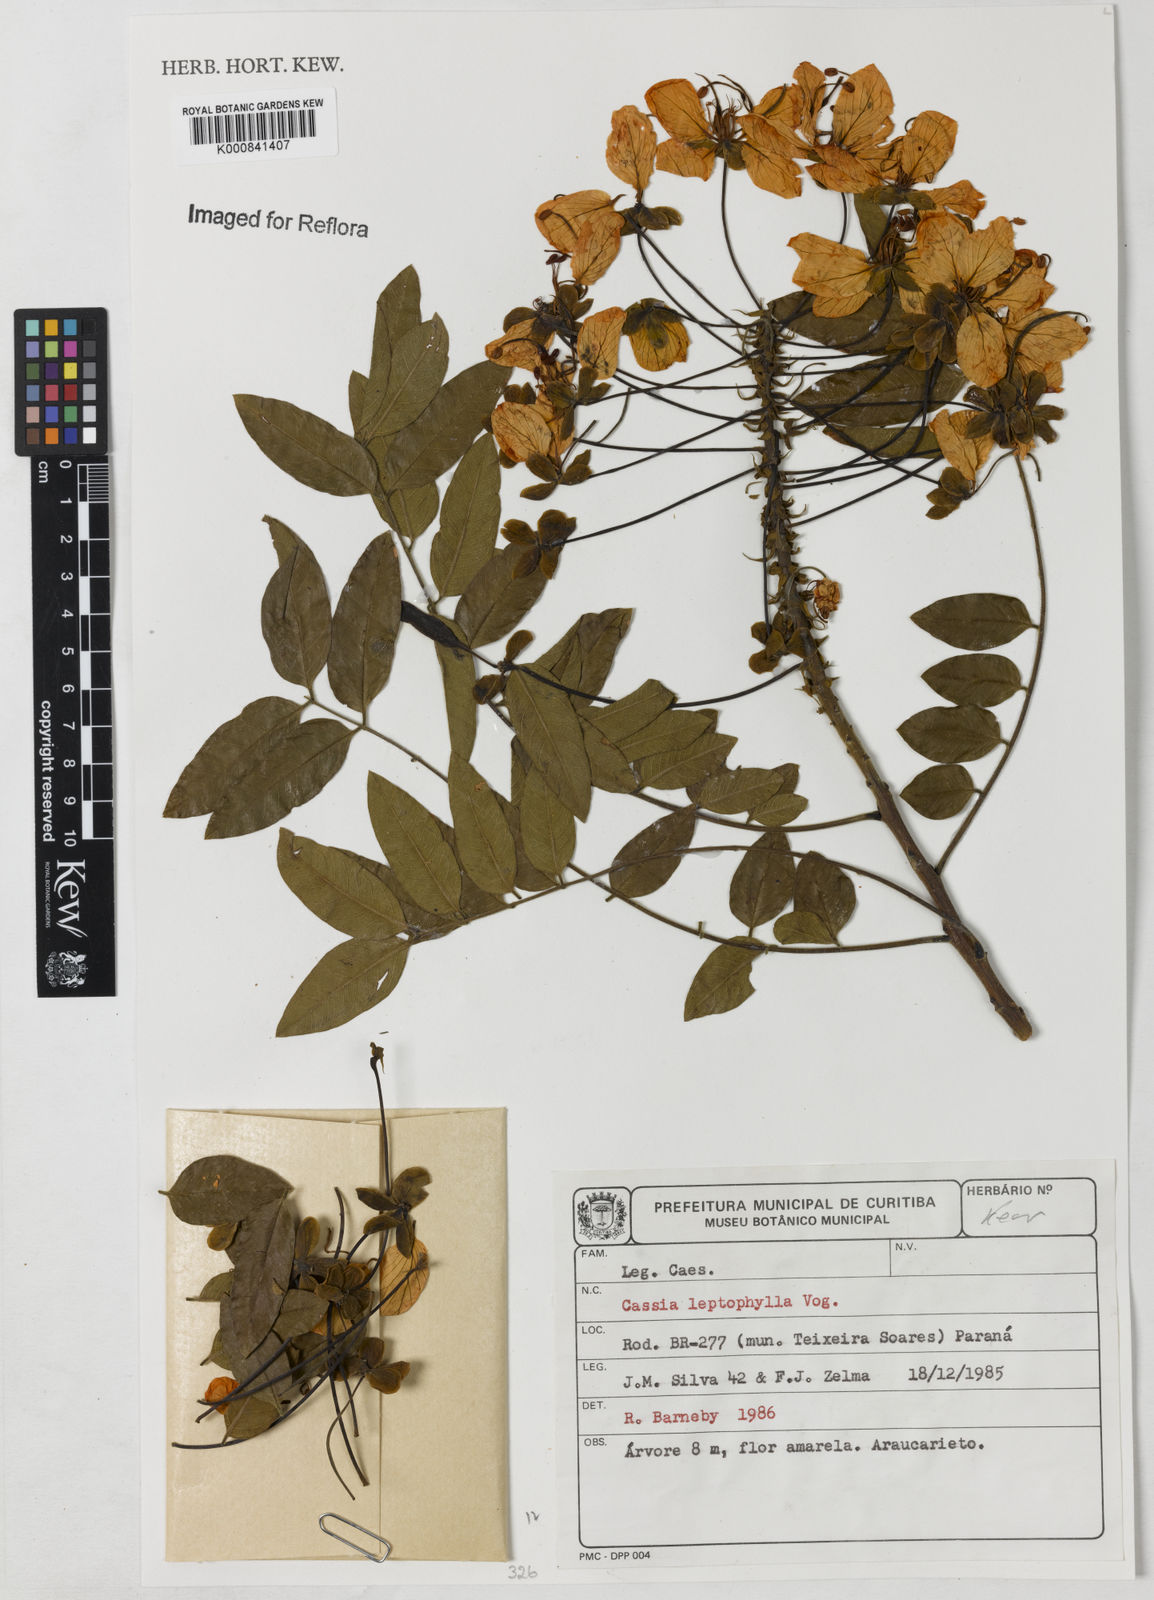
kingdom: Plantae
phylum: Tracheophyta
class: Magnoliopsida
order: Fabales
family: Fabaceae
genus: Cassia
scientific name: Cassia leptophylla
